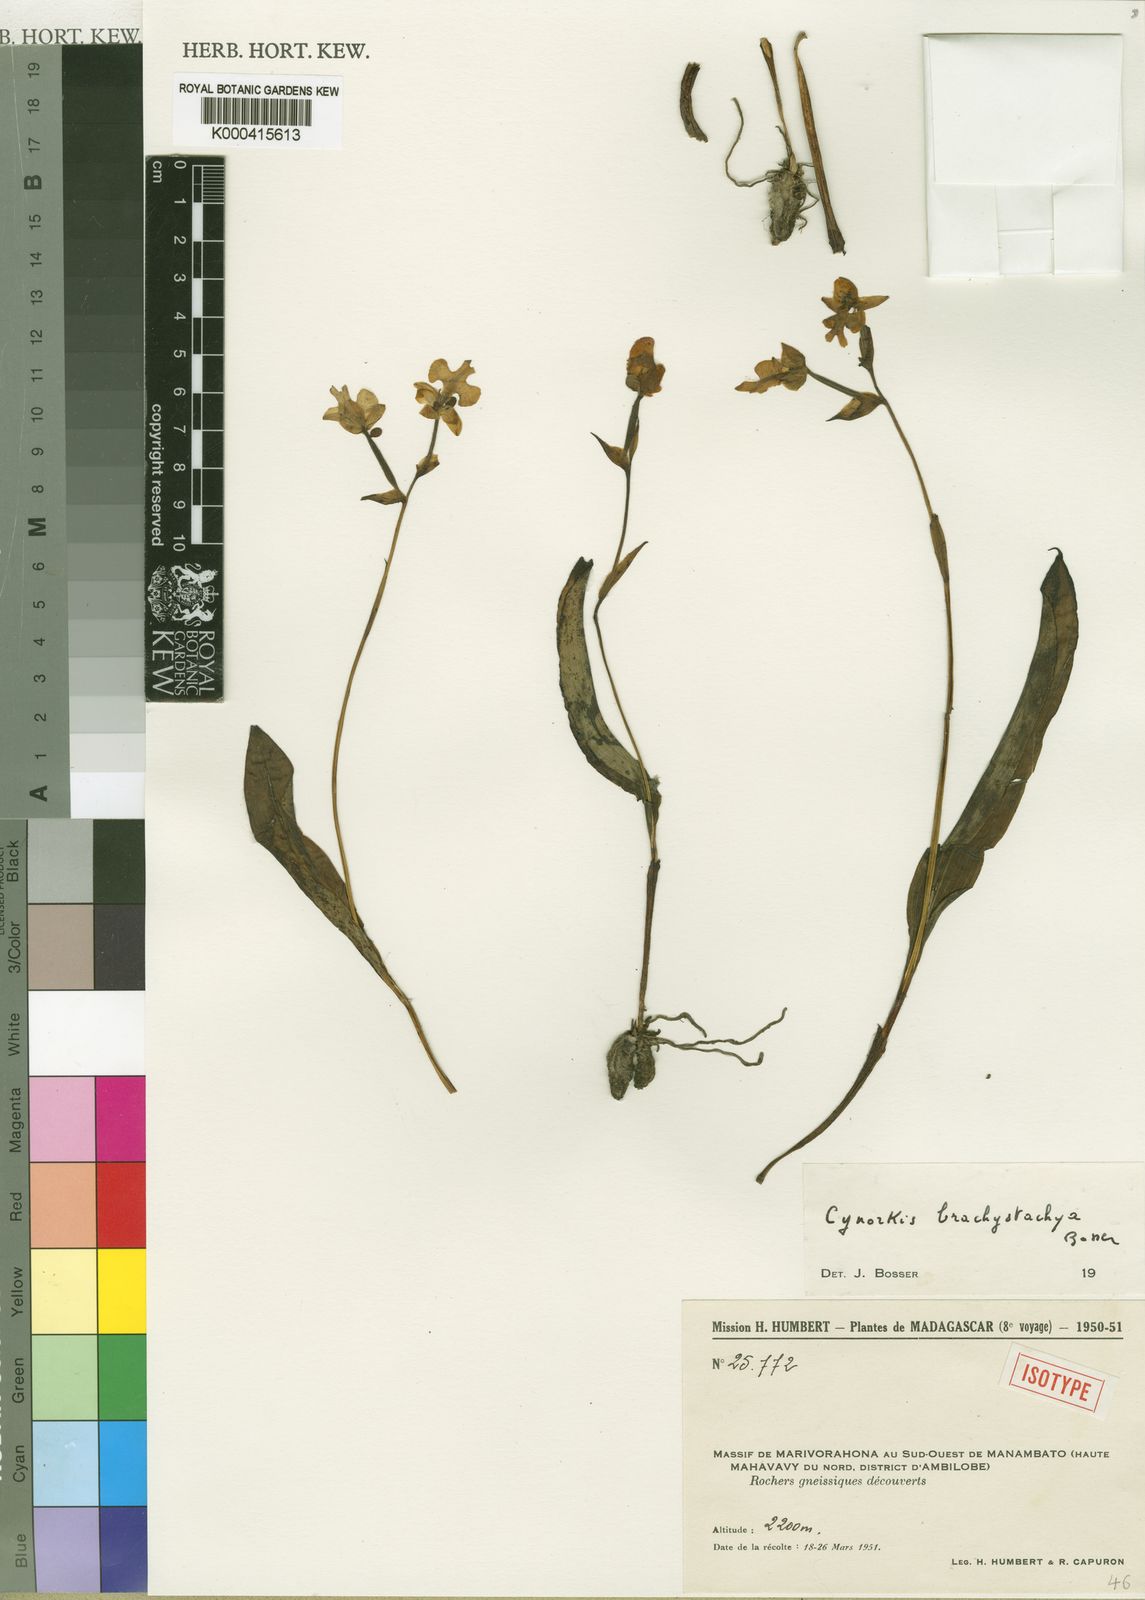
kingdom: Plantae
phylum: Tracheophyta
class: Liliopsida
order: Asparagales
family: Orchidaceae
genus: Cynorkis
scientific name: Cynorkis brachystachya
